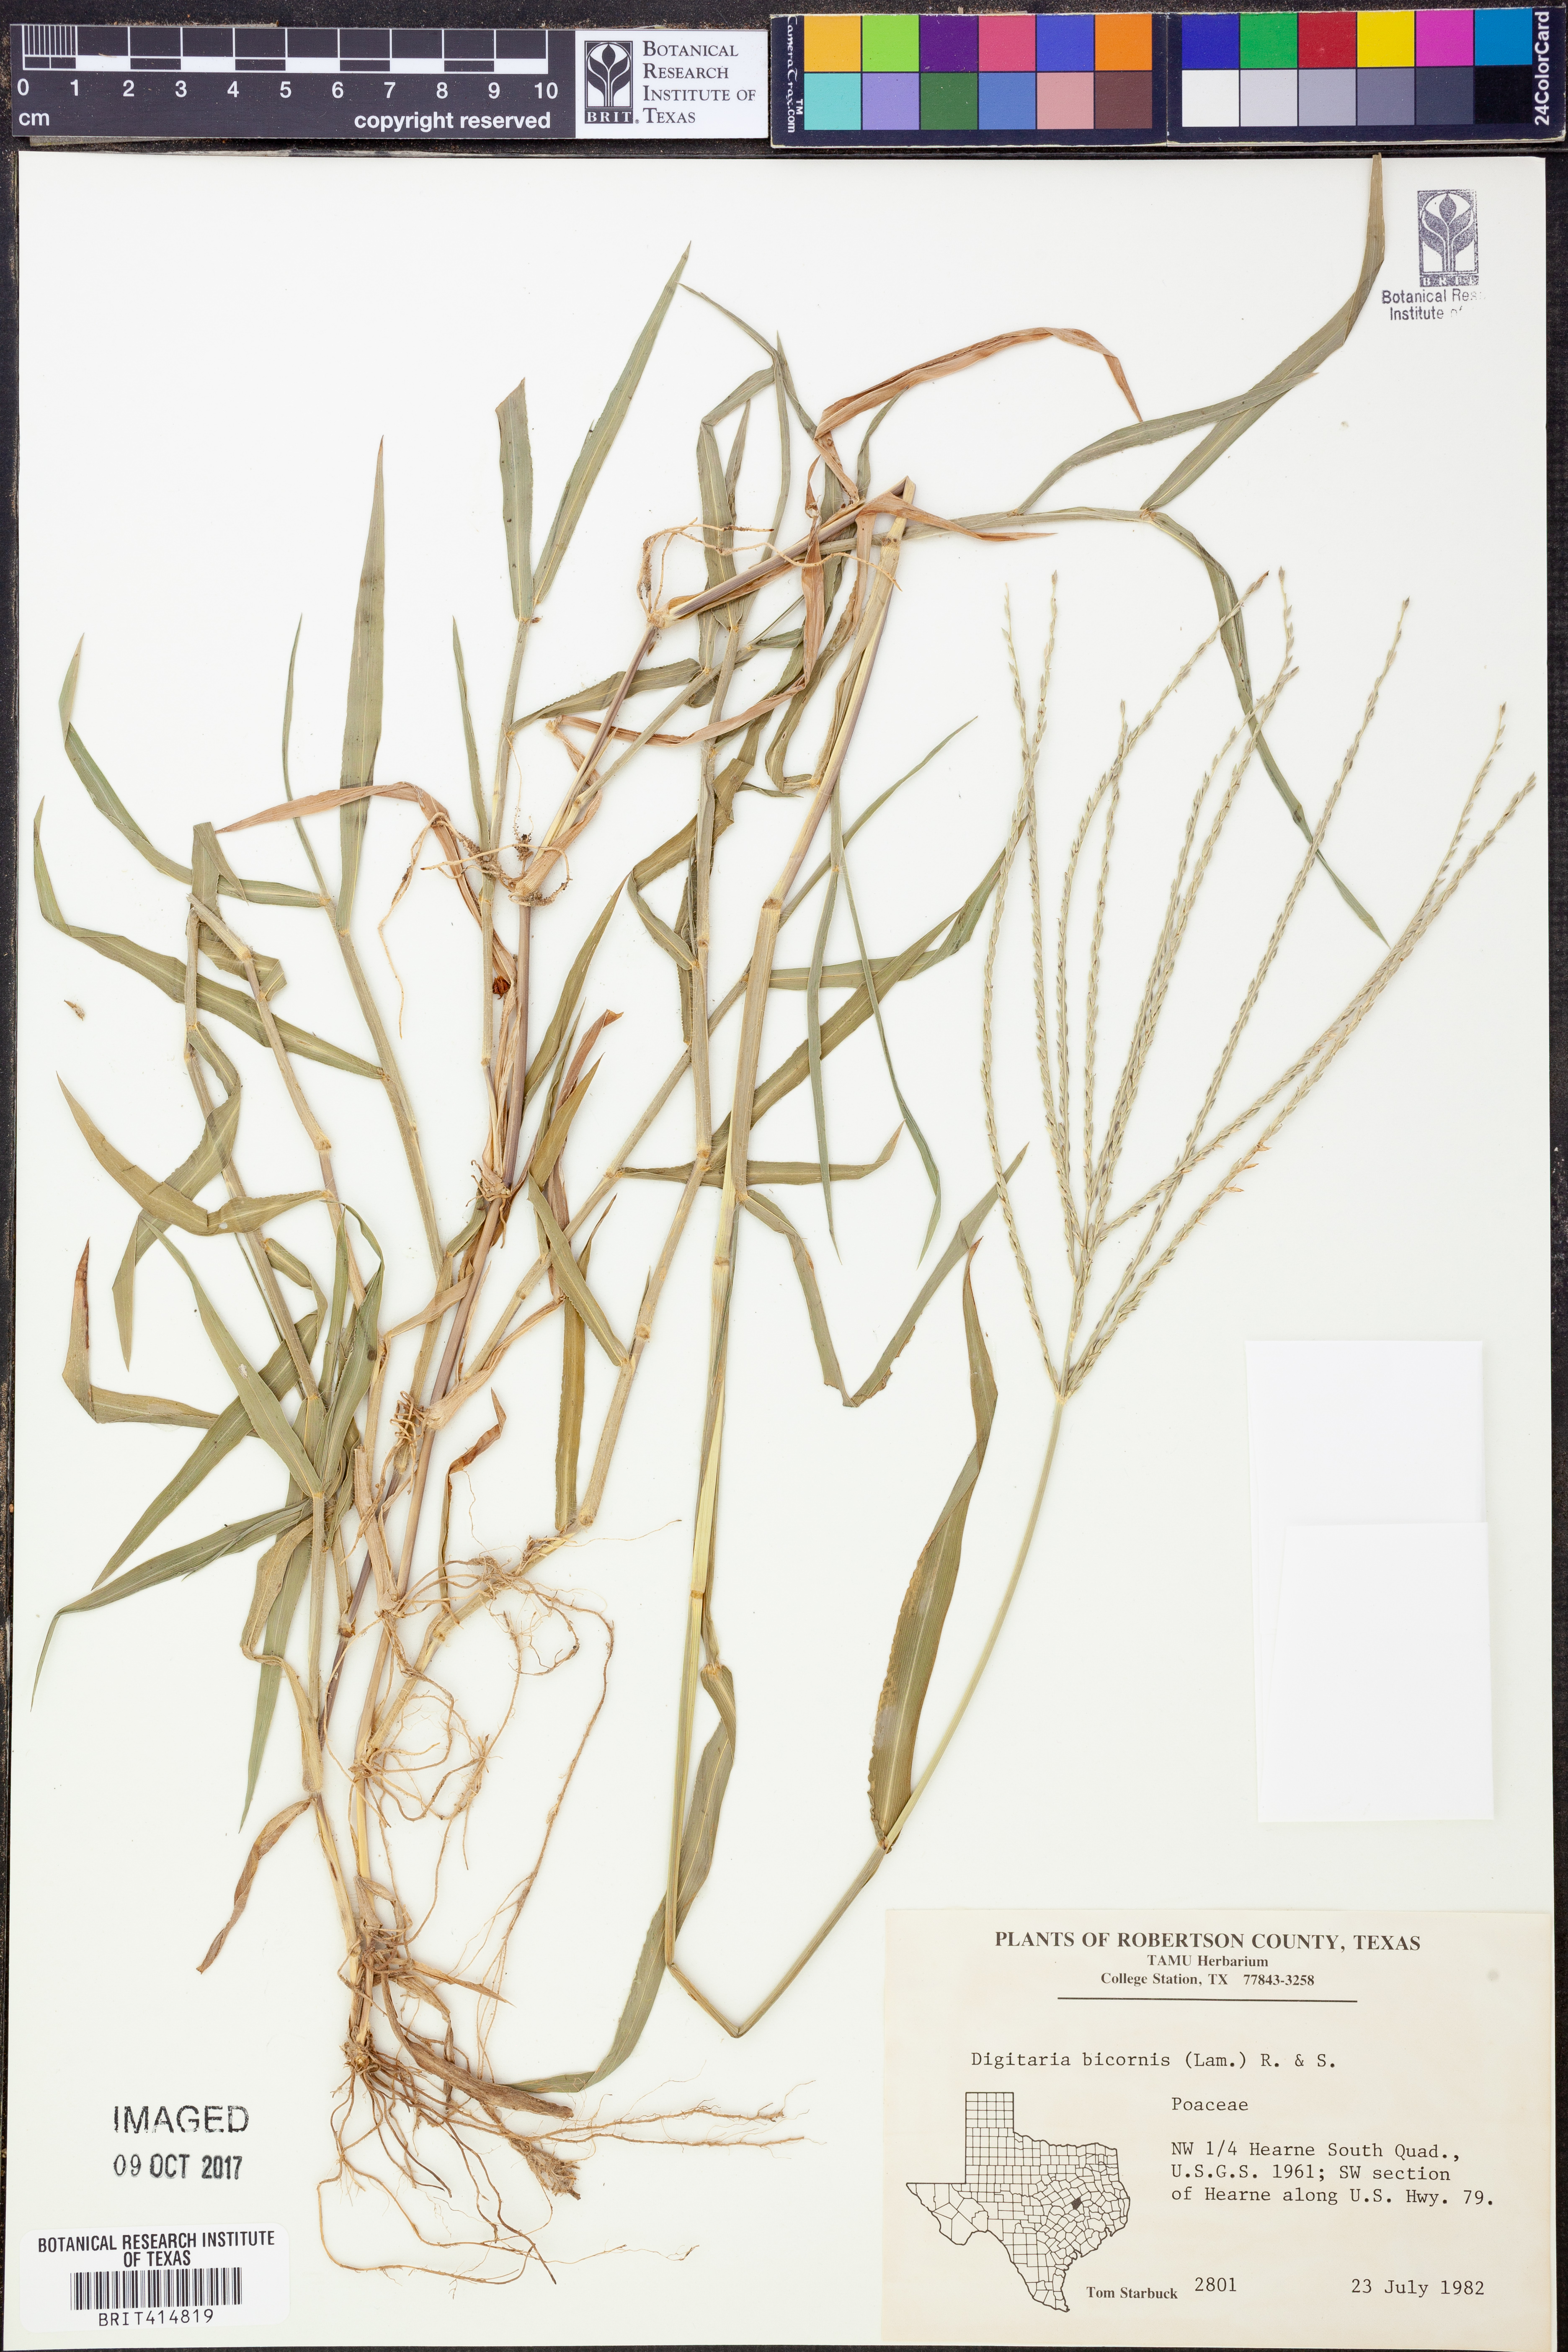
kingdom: Plantae
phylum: Tracheophyta
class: Liliopsida
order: Poales
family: Poaceae
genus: Digitaria
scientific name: Digitaria bicornis
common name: Asian crabgrass
